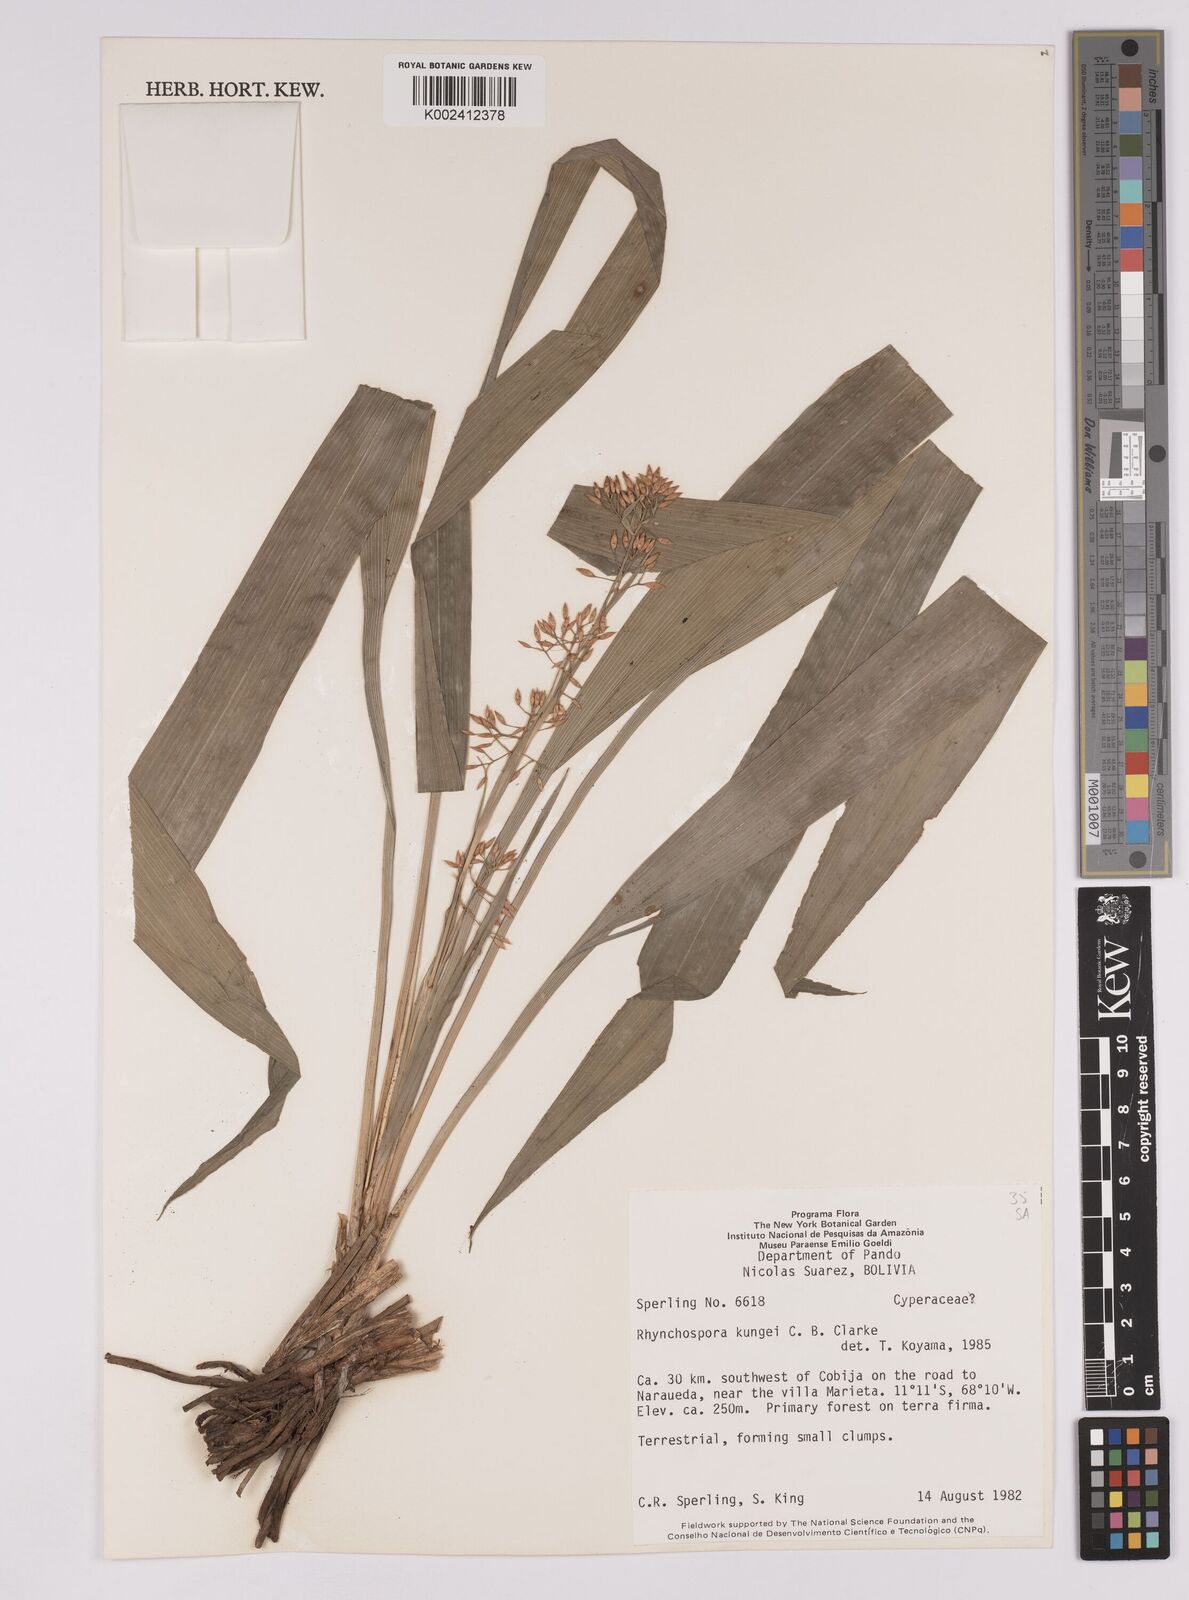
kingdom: Plantae
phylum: Tracheophyta
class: Liliopsida
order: Poales
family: Cyperaceae
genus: Rhynchospora
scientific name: Rhynchospora umbraticola
